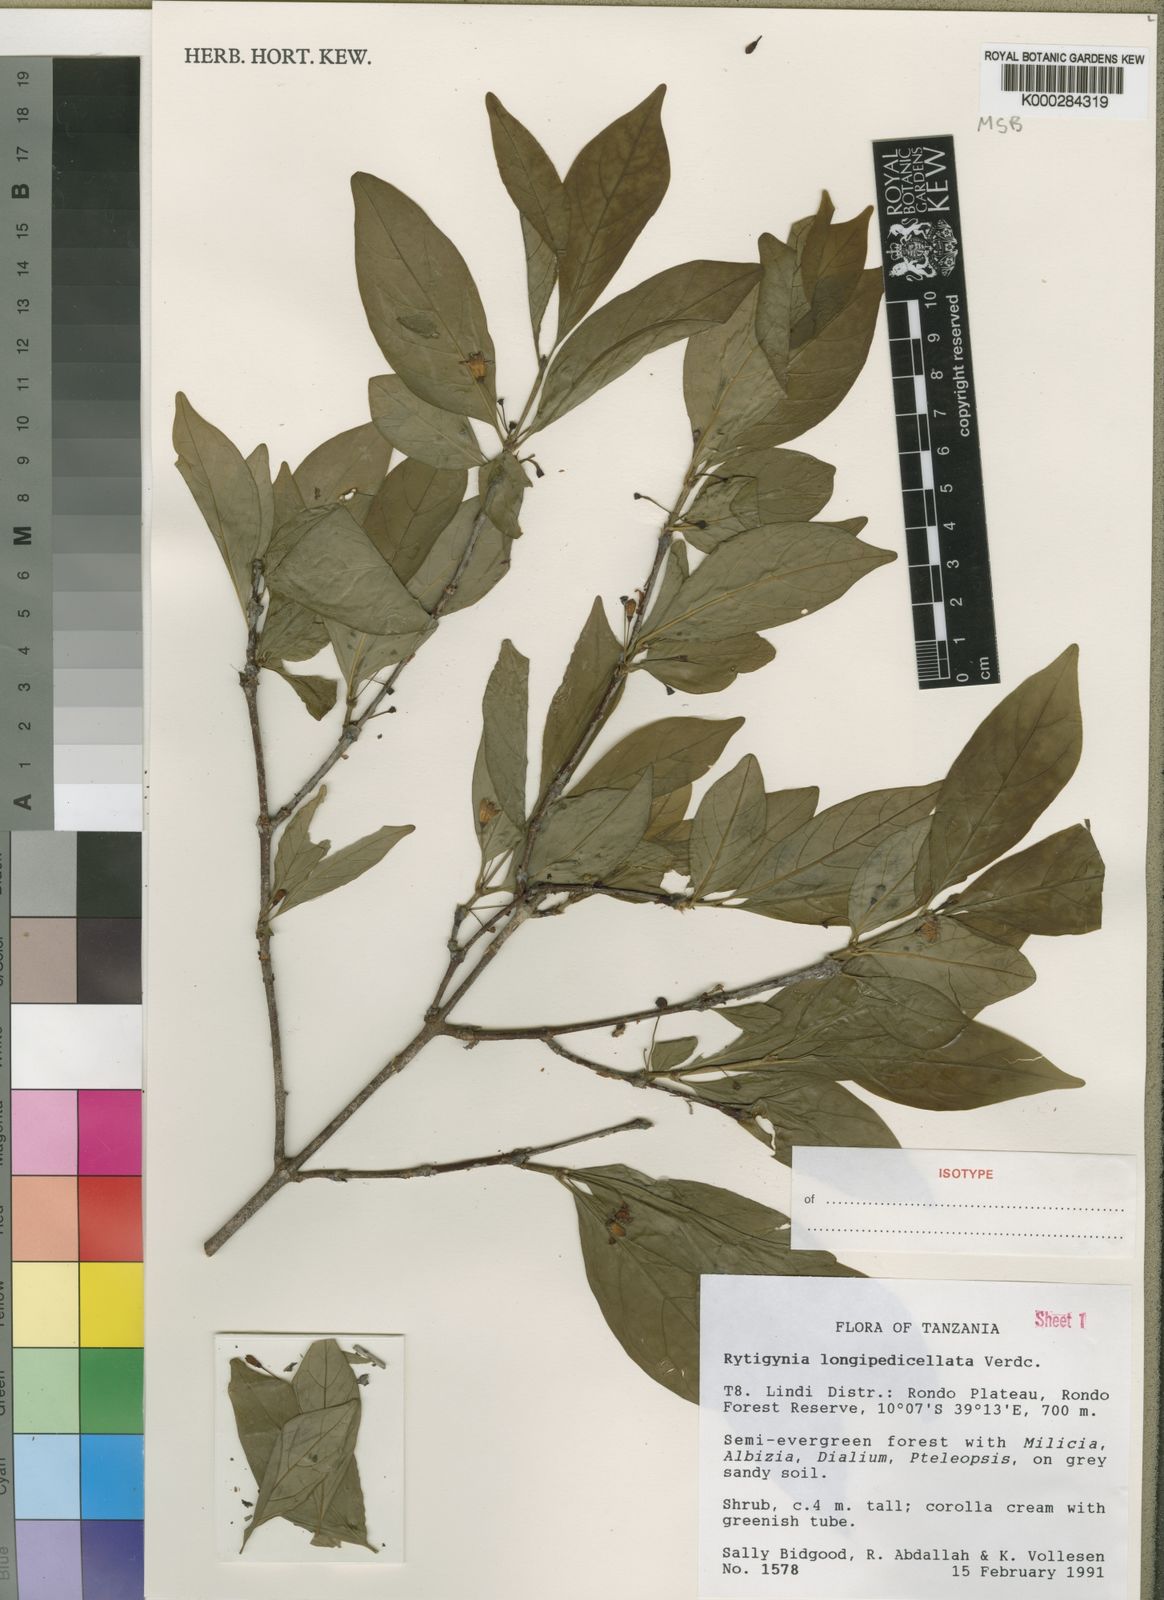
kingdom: Plantae
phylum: Tracheophyta
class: Magnoliopsida
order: Gentianales
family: Rubiaceae
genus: Rytigynia
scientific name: Rytigynia longipedicellata
